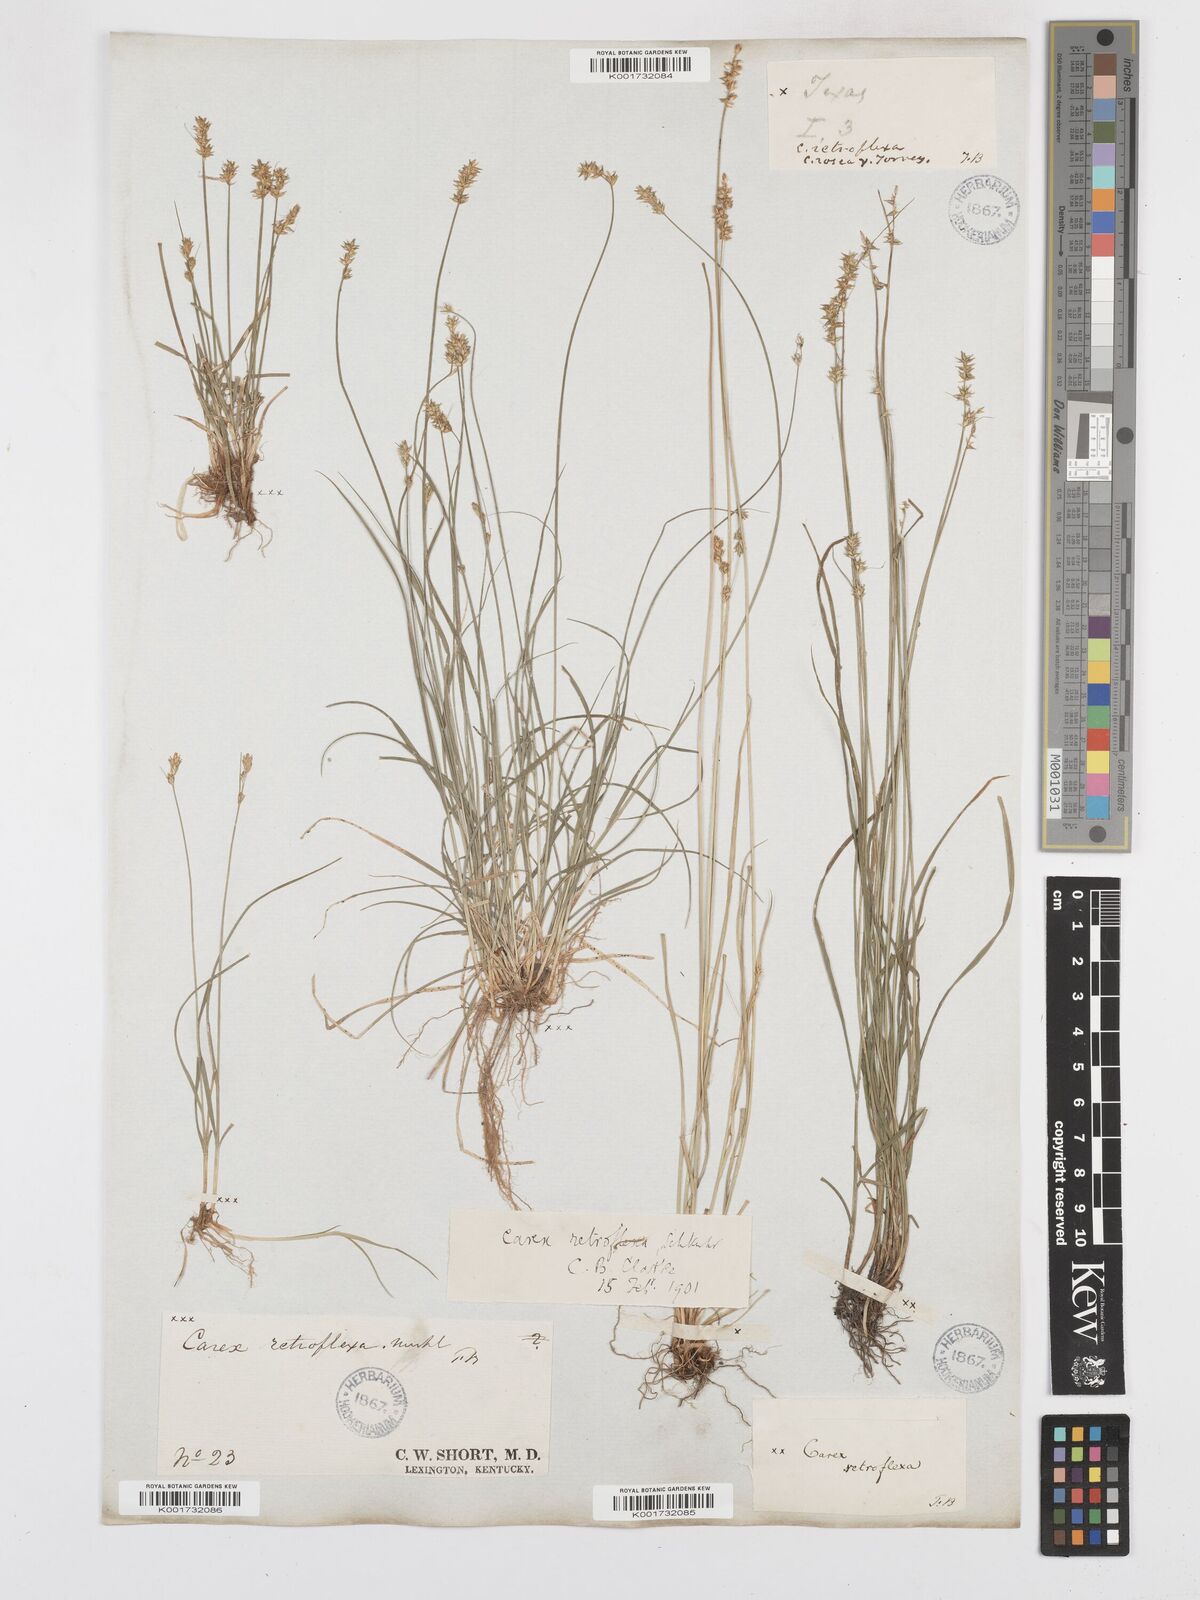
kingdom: Plantae
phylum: Tracheophyta
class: Liliopsida
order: Poales
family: Cyperaceae
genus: Carex
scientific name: Carex texensis
